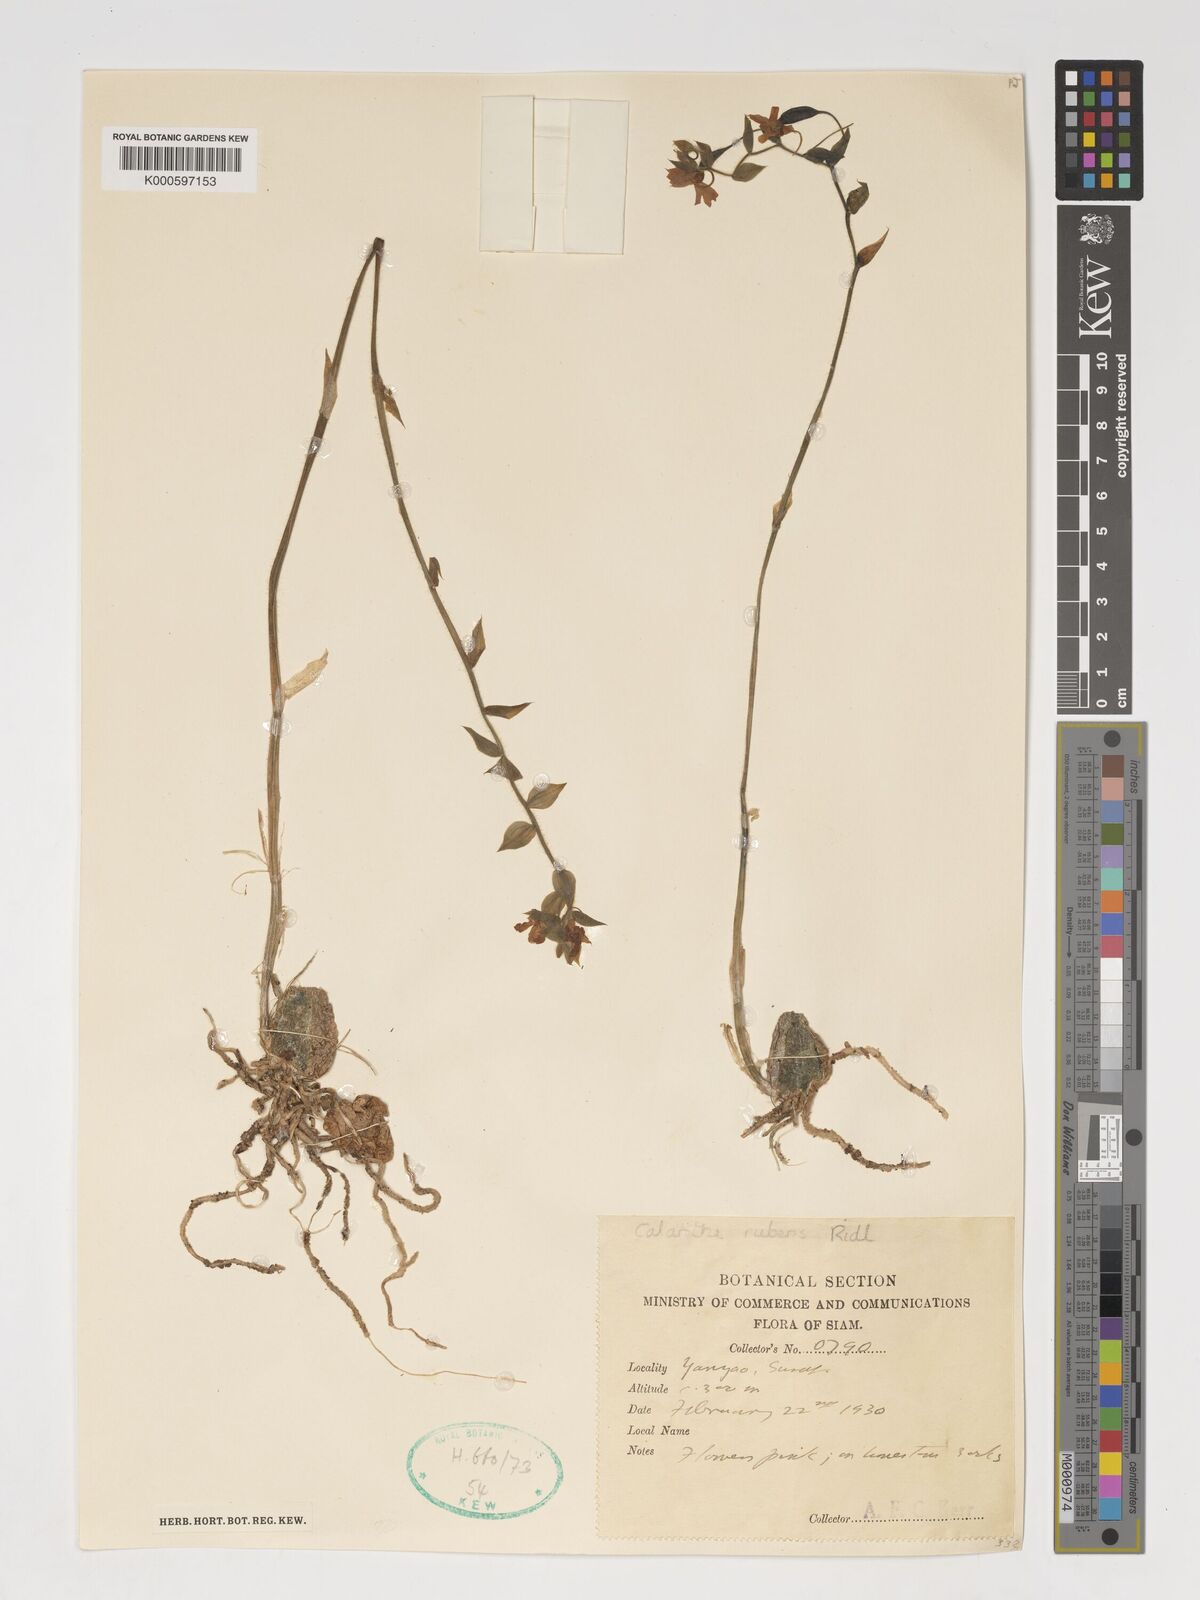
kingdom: Plantae
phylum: Tracheophyta
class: Liliopsida
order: Asparagales
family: Orchidaceae
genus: Calanthe
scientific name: Calanthe rubens
